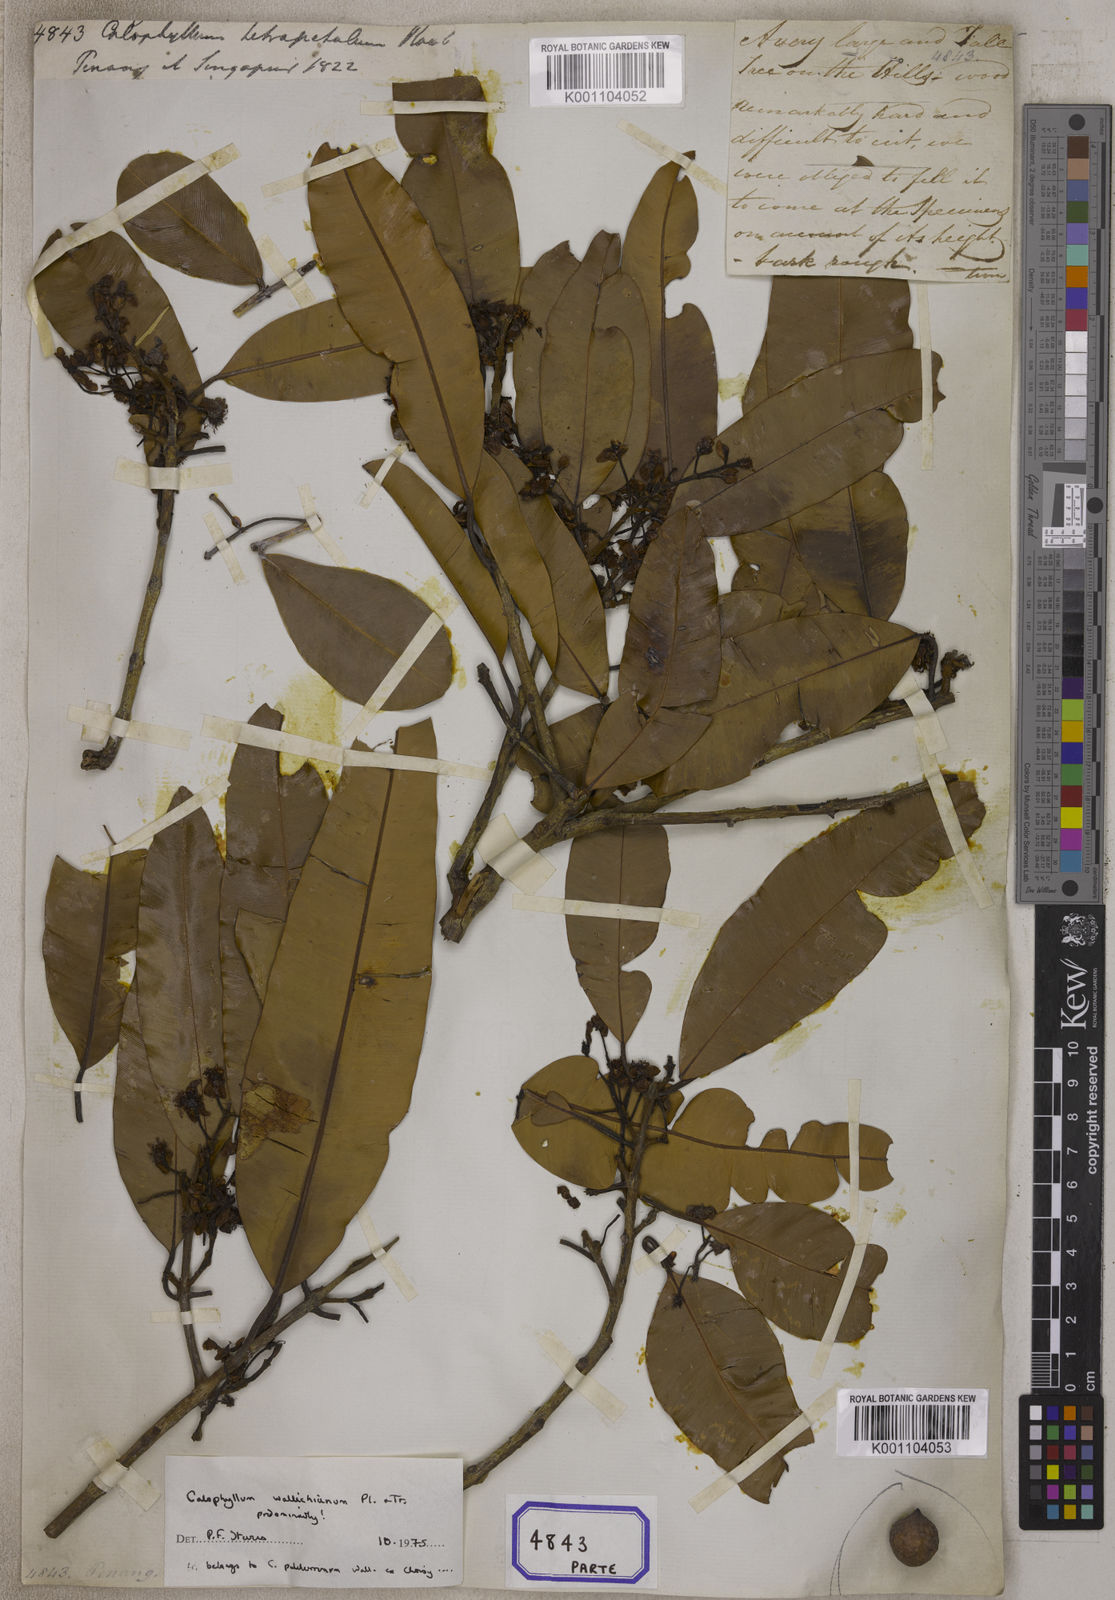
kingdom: Plantae
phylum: Tracheophyta
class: Magnoliopsida
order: Malpighiales
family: Calophyllaceae
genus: Calophyllum
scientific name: Calophyllum soulattri
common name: Bitangoor boonot
